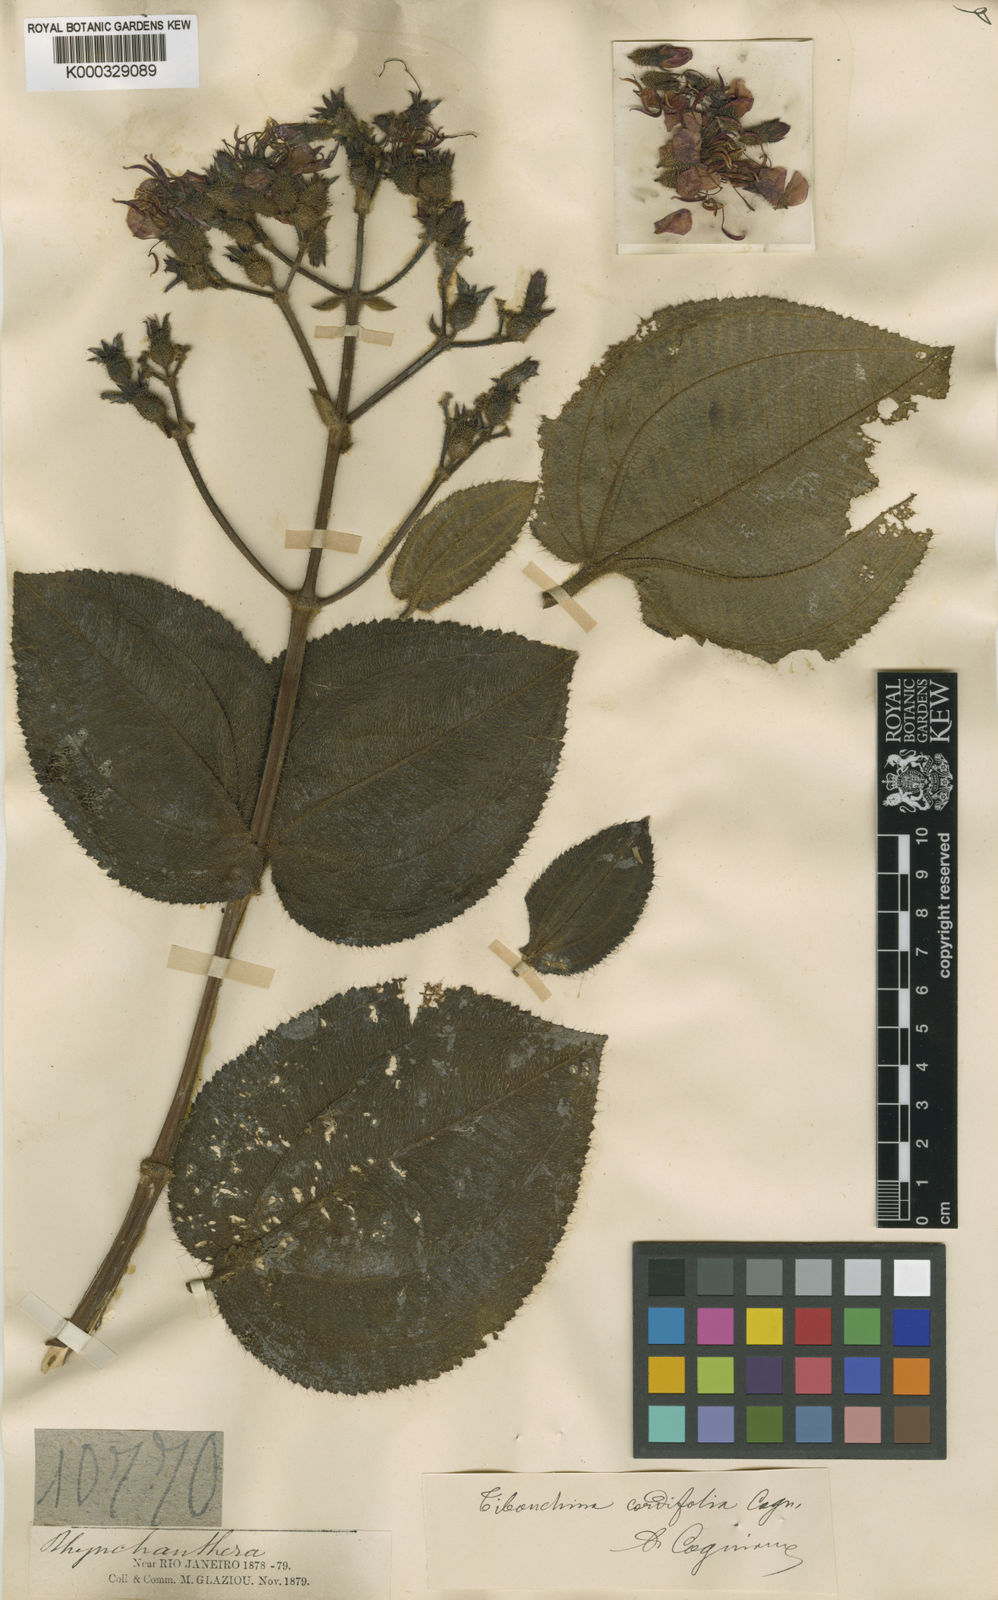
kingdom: Plantae
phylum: Tracheophyta
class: Magnoliopsida
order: Myrtales
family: Melastomataceae
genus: Pleroma
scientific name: Pleroma cordifolium
